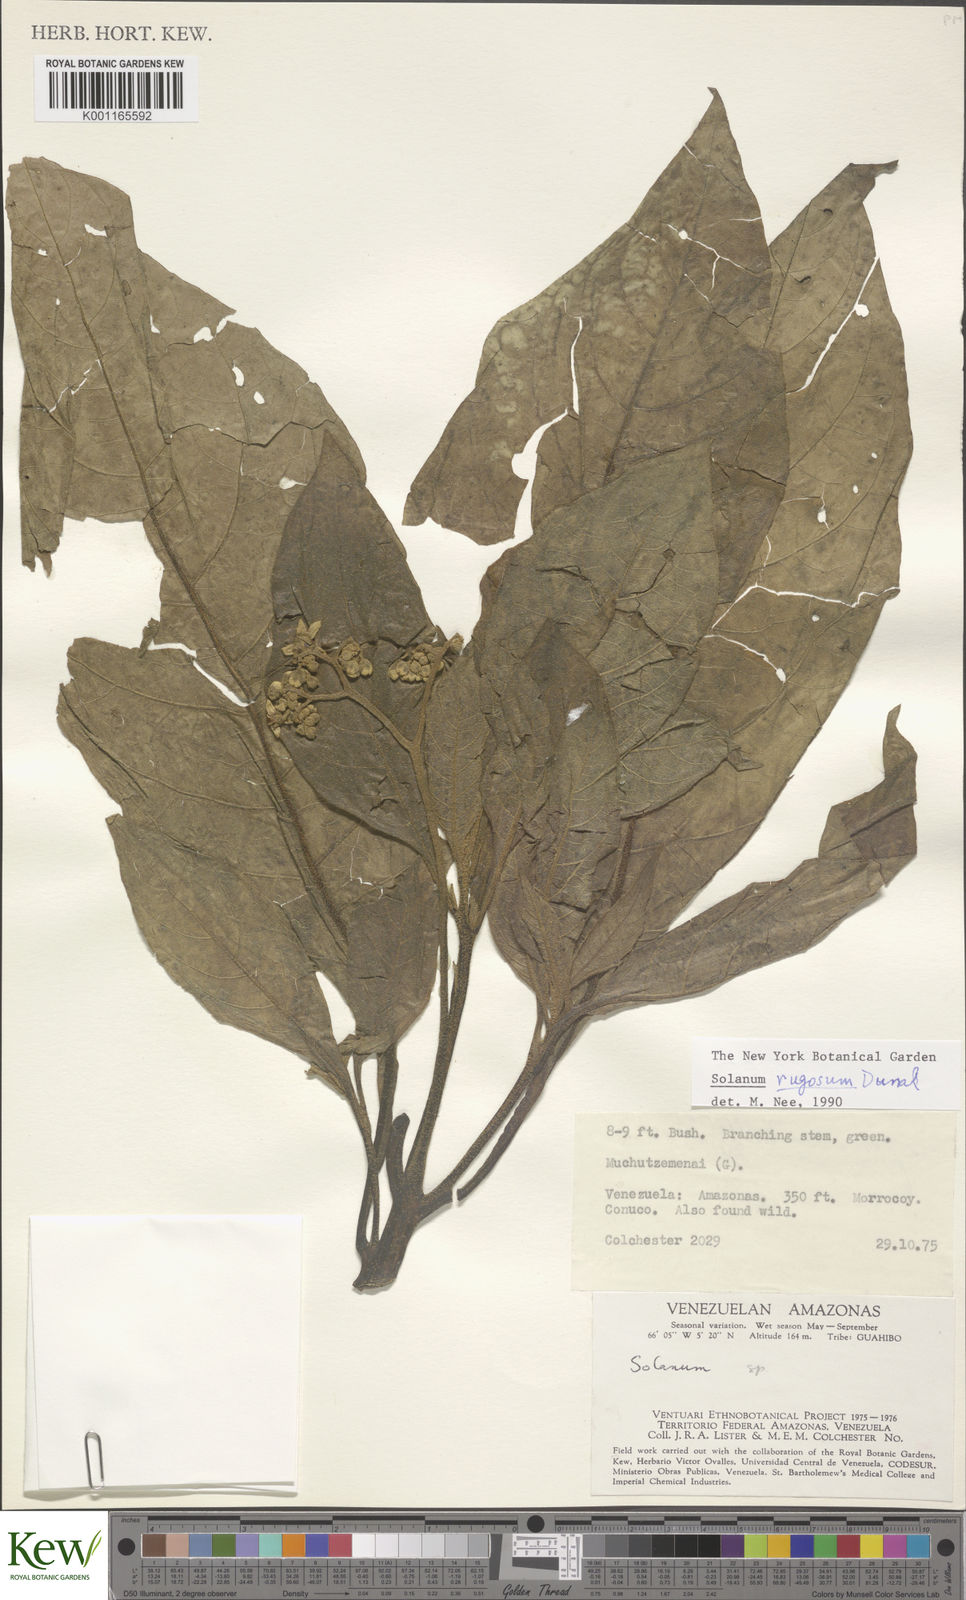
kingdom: Plantae
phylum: Tracheophyta
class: Magnoliopsida
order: Solanales
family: Solanaceae
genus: Solanum
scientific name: Solanum rugosum
